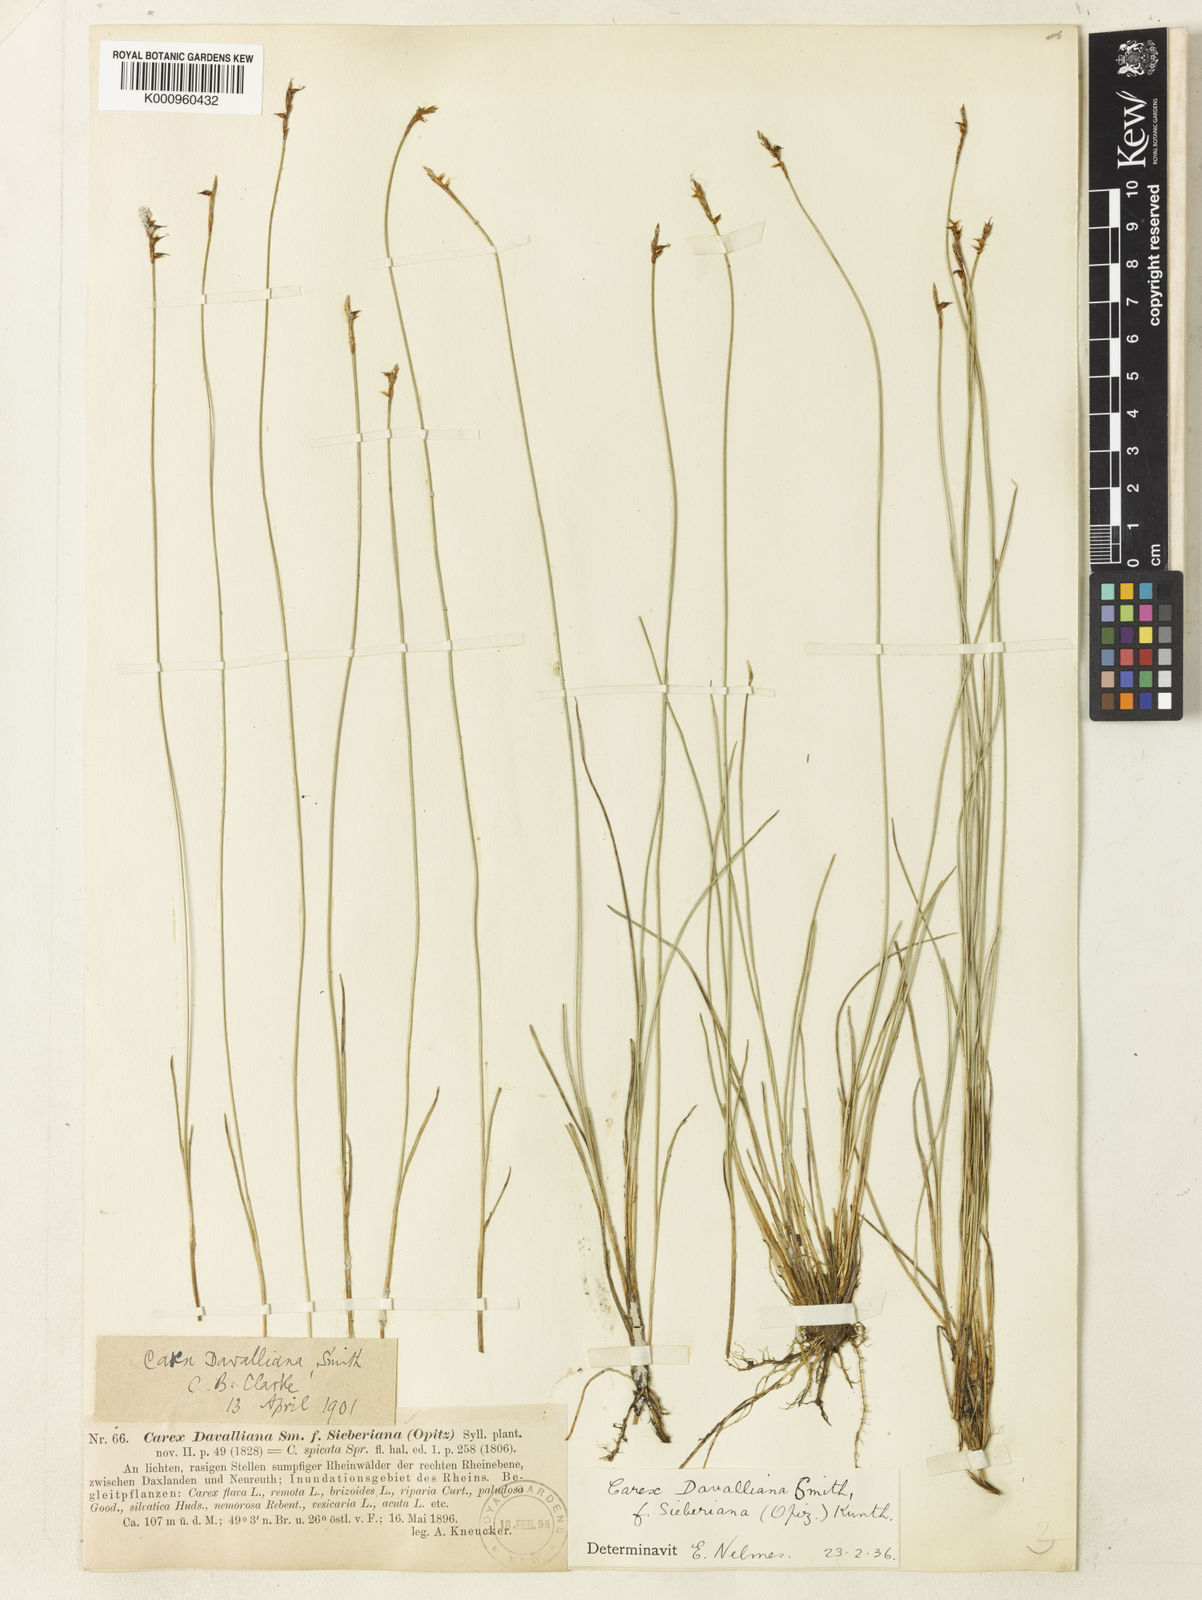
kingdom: Plantae
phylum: Tracheophyta
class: Liliopsida
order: Poales
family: Cyperaceae
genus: Carex
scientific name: Carex davalliana
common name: Davall's sedge
